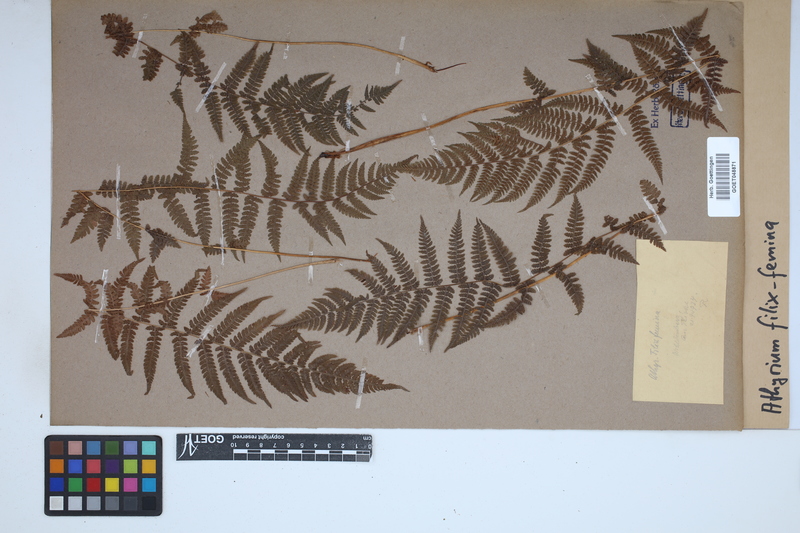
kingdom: Plantae
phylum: Tracheophyta
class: Polypodiopsida
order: Polypodiales
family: Athyriaceae
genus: Athyrium
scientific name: Athyrium filix-femina
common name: Lady fern
